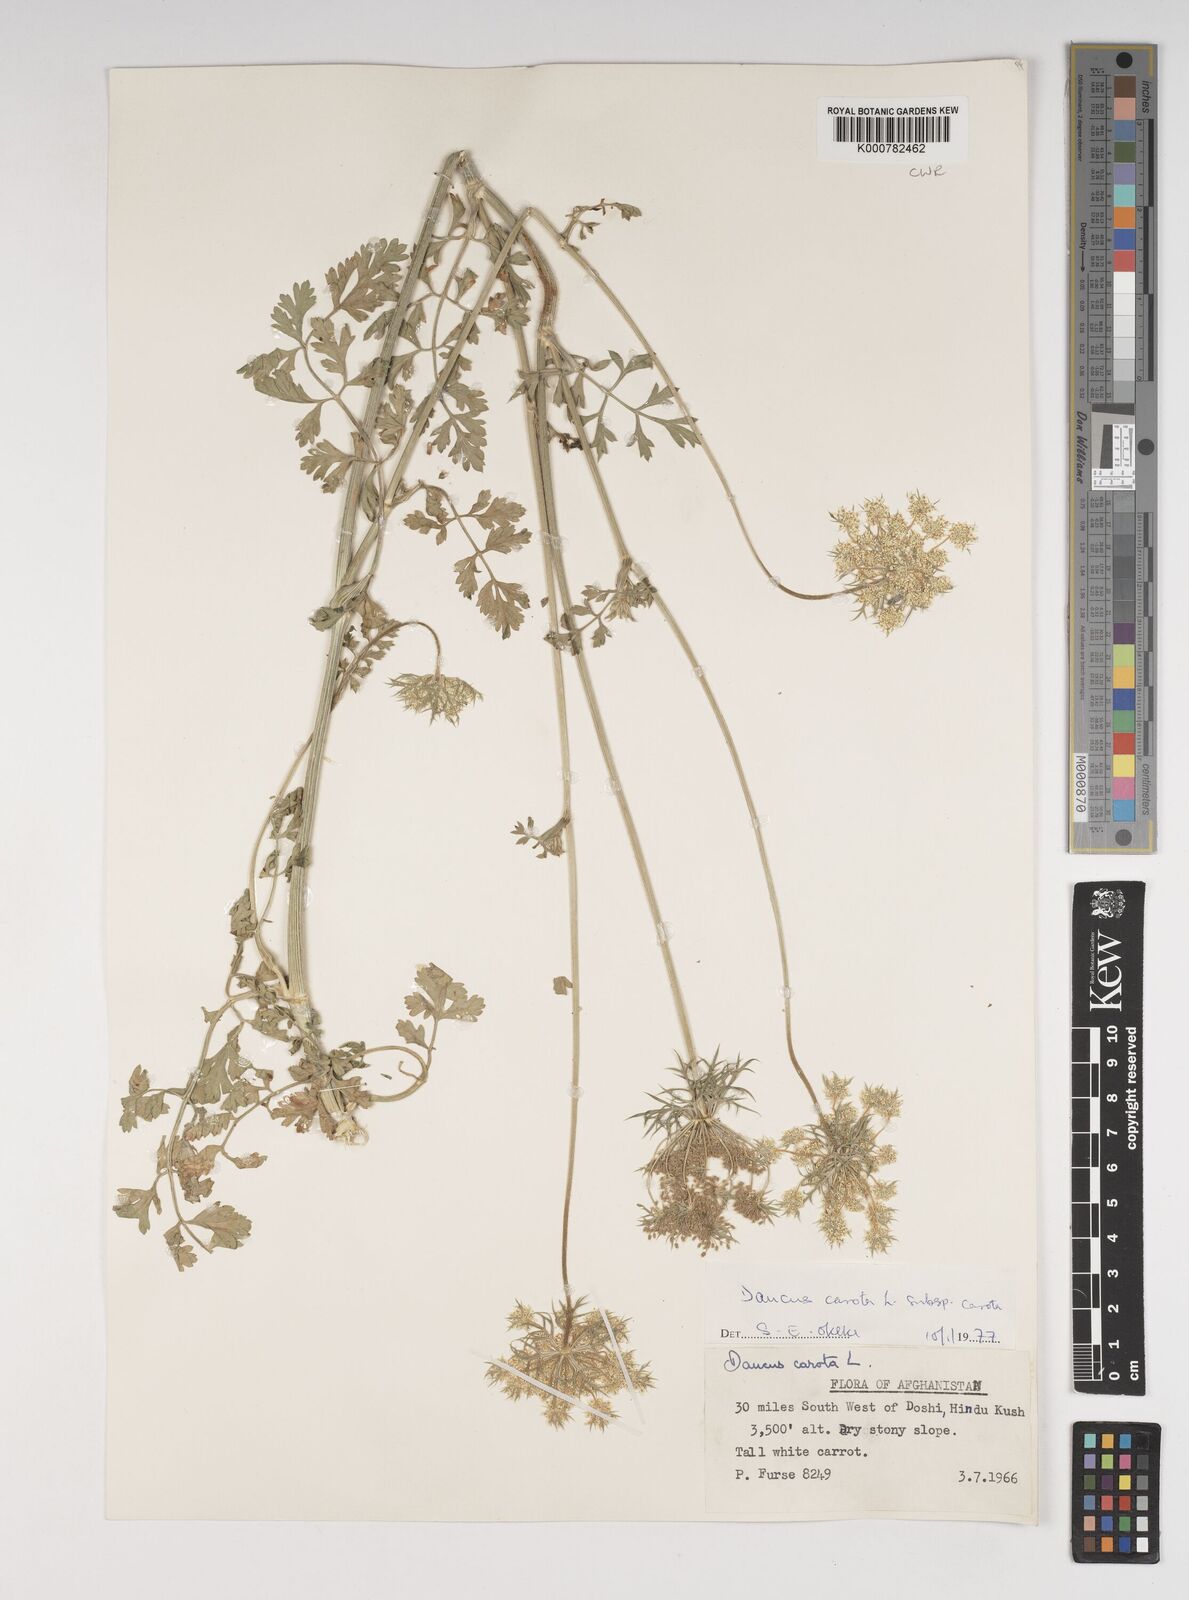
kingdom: Plantae
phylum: Tracheophyta
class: Magnoliopsida
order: Apiales
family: Apiaceae
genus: Daucus
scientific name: Daucus carota
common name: Wild carrot
